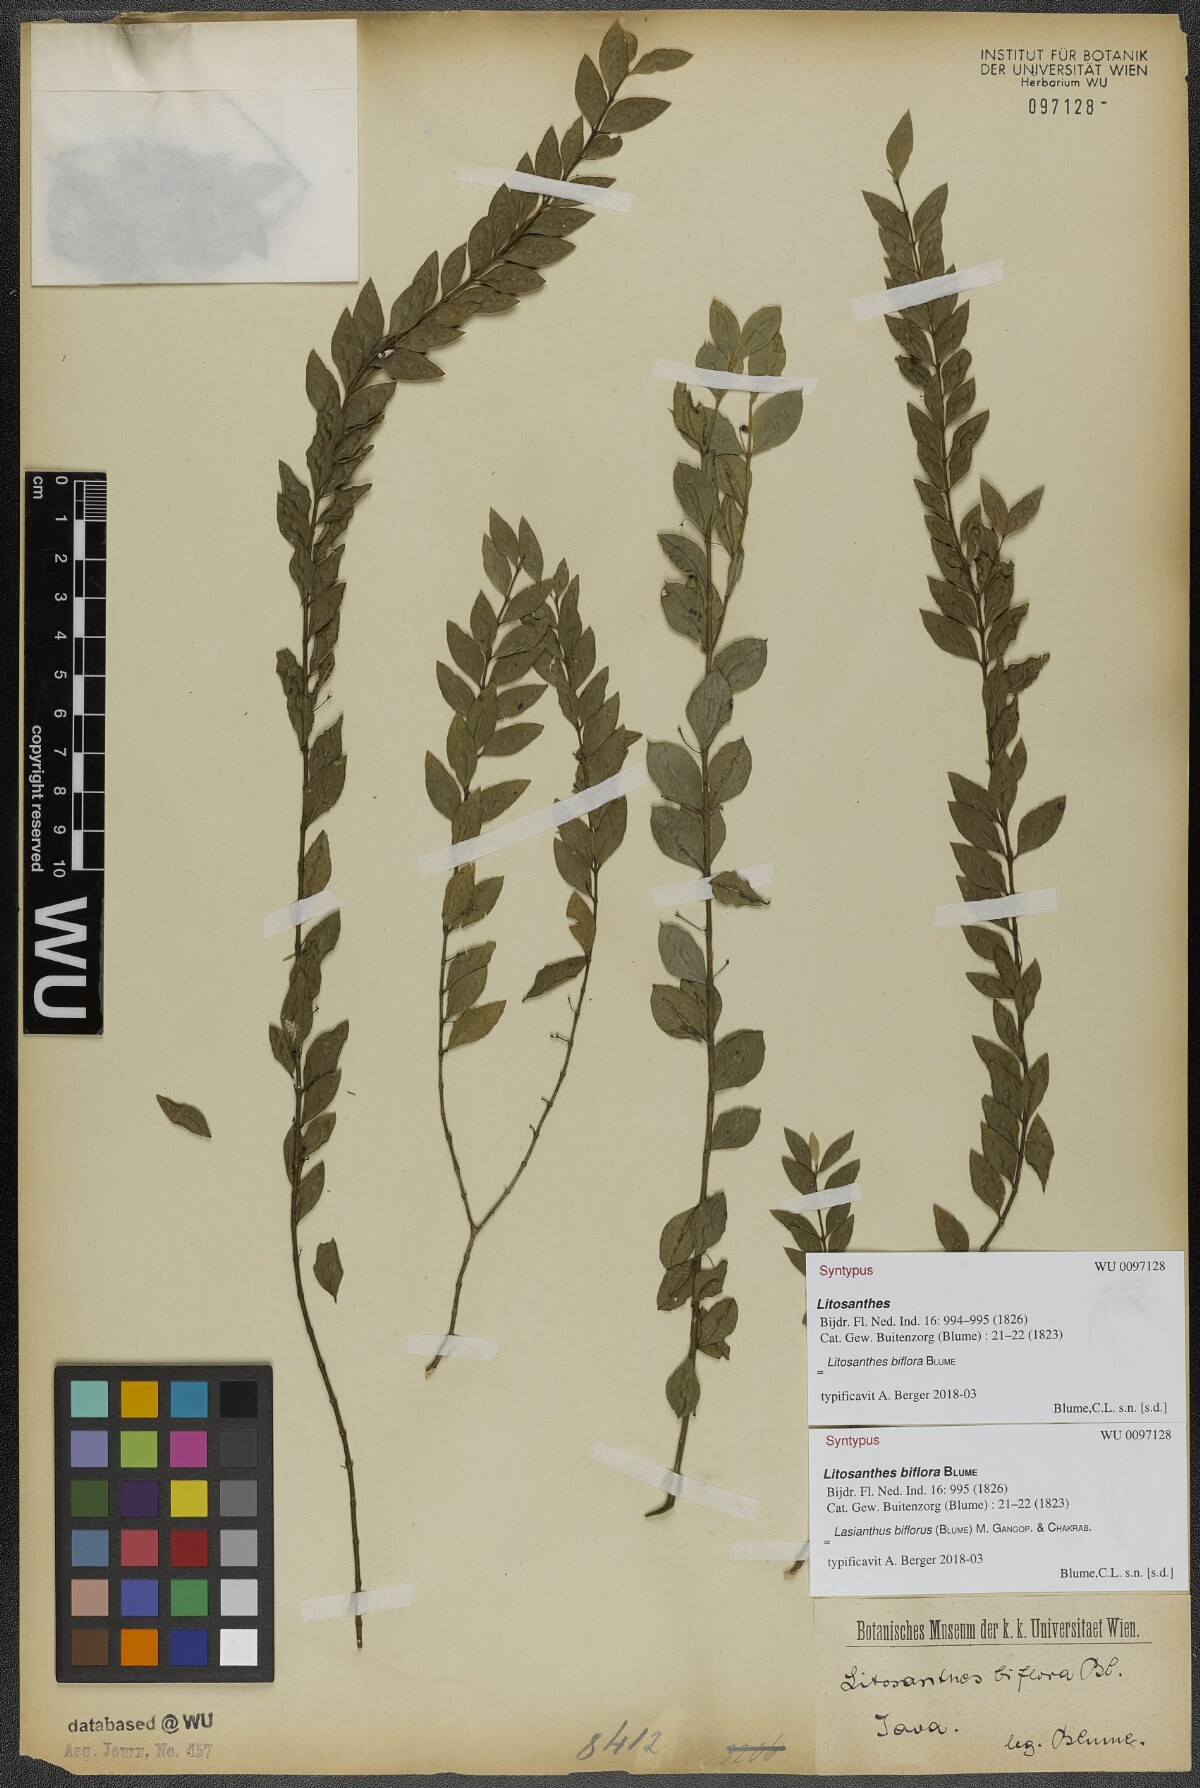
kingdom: Plantae
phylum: Tracheophyta
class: Magnoliopsida
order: Gentianales
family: Rubiaceae
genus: Lasianthus
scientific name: Lasianthus biflorus
